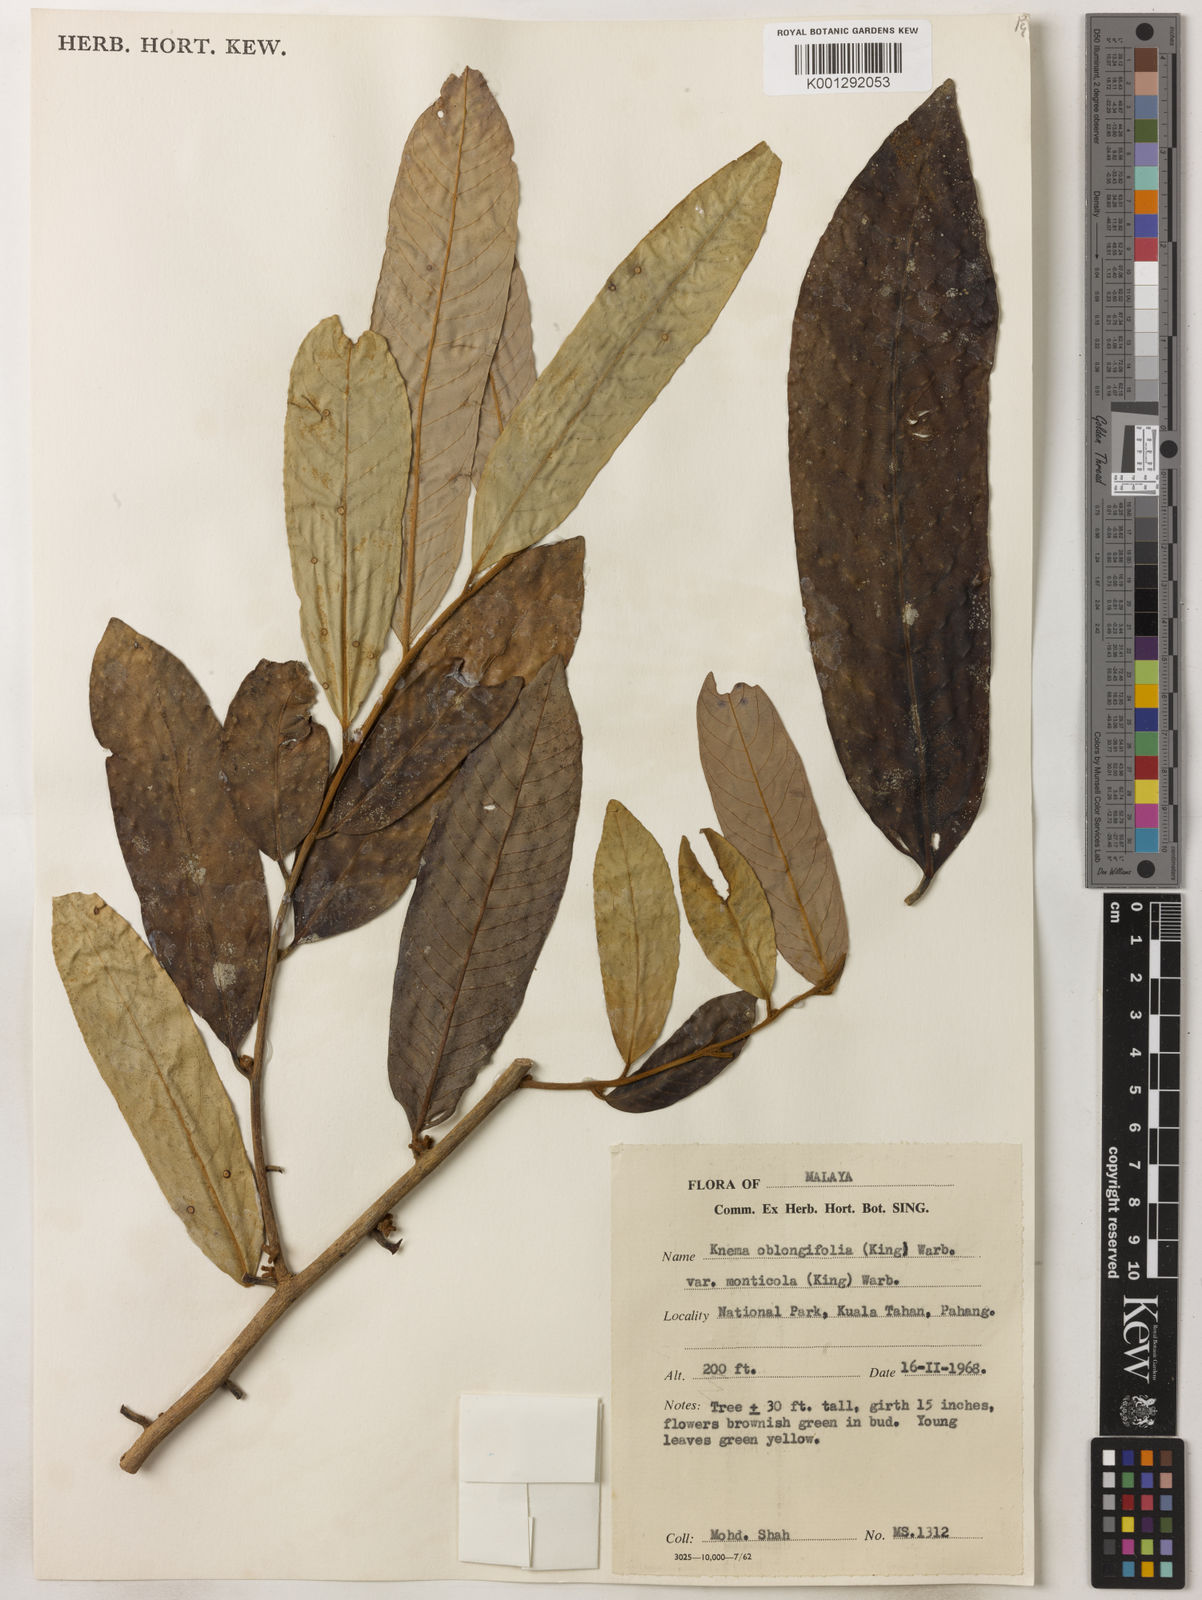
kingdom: Plantae
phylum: Tracheophyta
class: Magnoliopsida
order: Magnoliales
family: Myristicaceae
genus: Knema
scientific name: Knema
